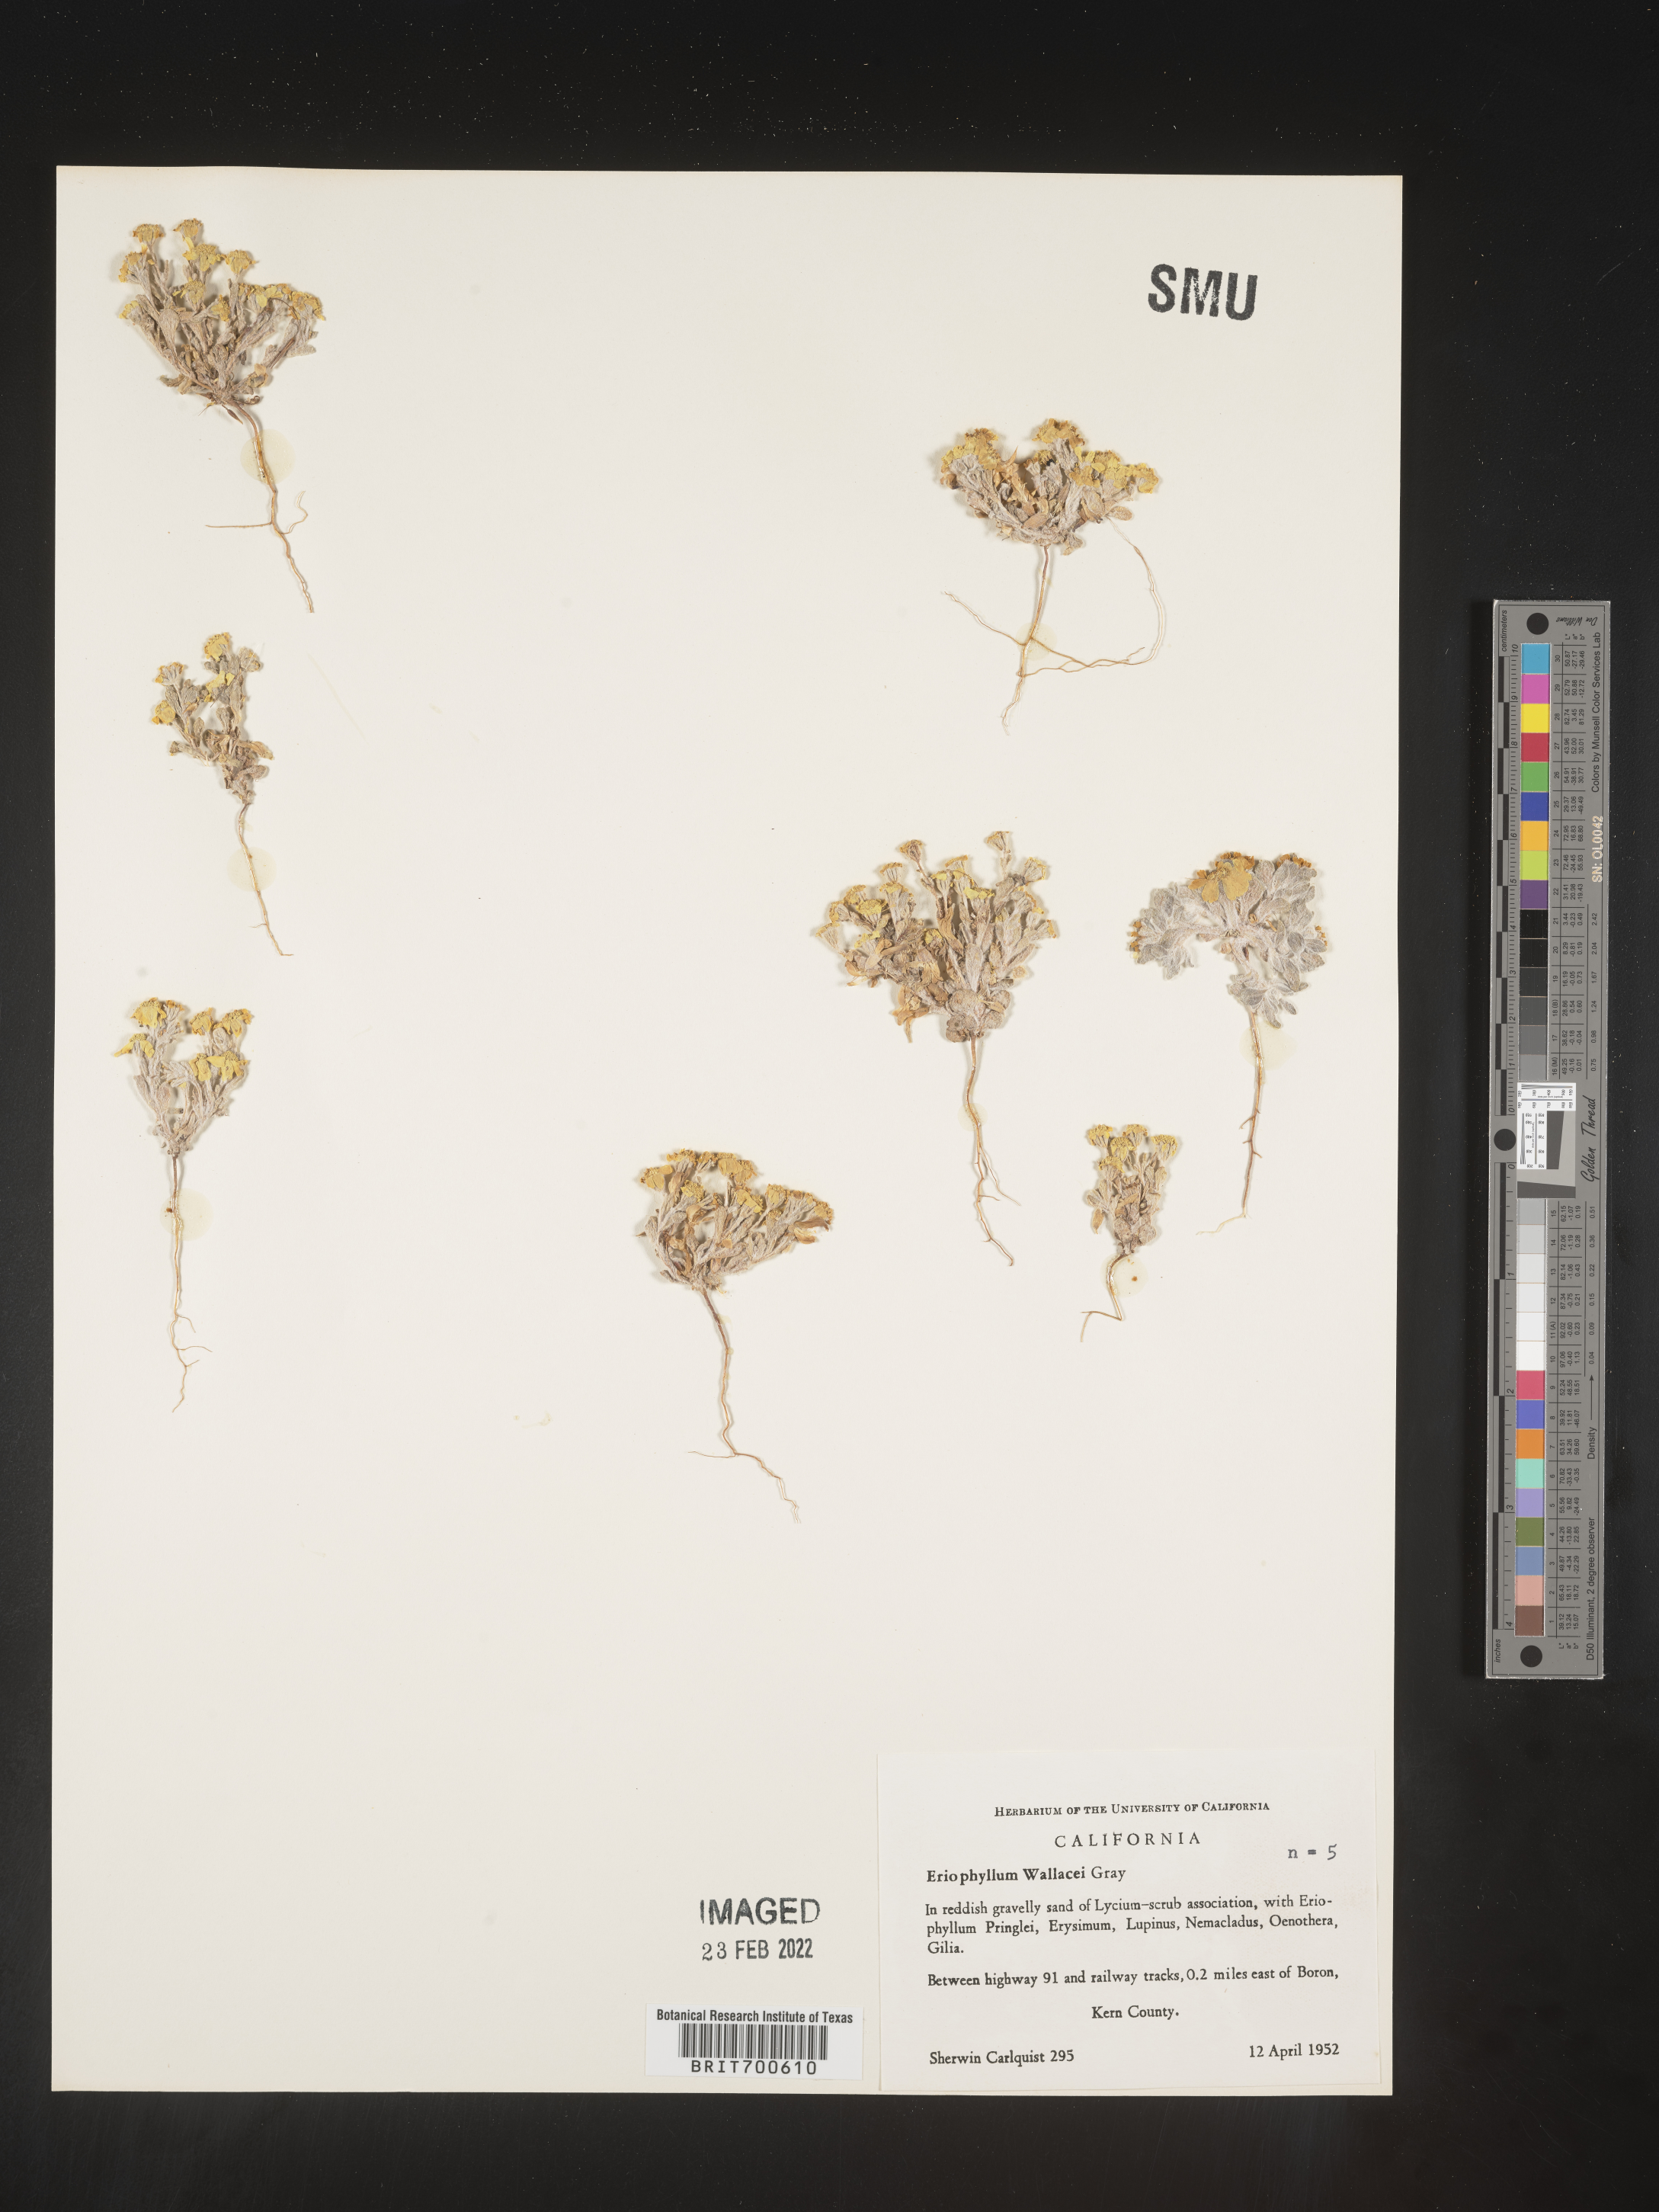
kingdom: Plantae
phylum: Tracheophyta
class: Magnoliopsida
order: Asterales
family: Asteraceae
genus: Eriophyllum
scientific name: Eriophyllum wallacei
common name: Wallace's woolly daisy
